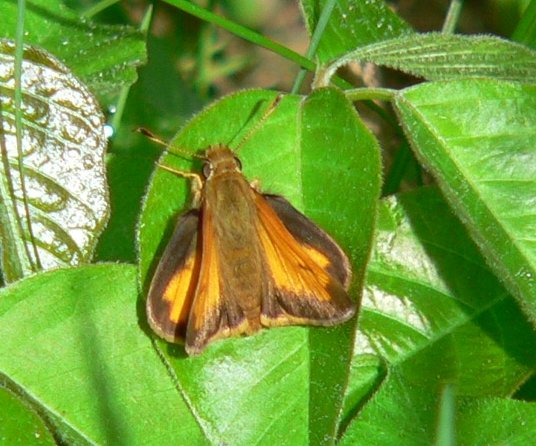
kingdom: Animalia
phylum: Arthropoda
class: Insecta
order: Lepidoptera
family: Hesperiidae
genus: Lon
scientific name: Lon hobomok
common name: Hobomok Skipper
